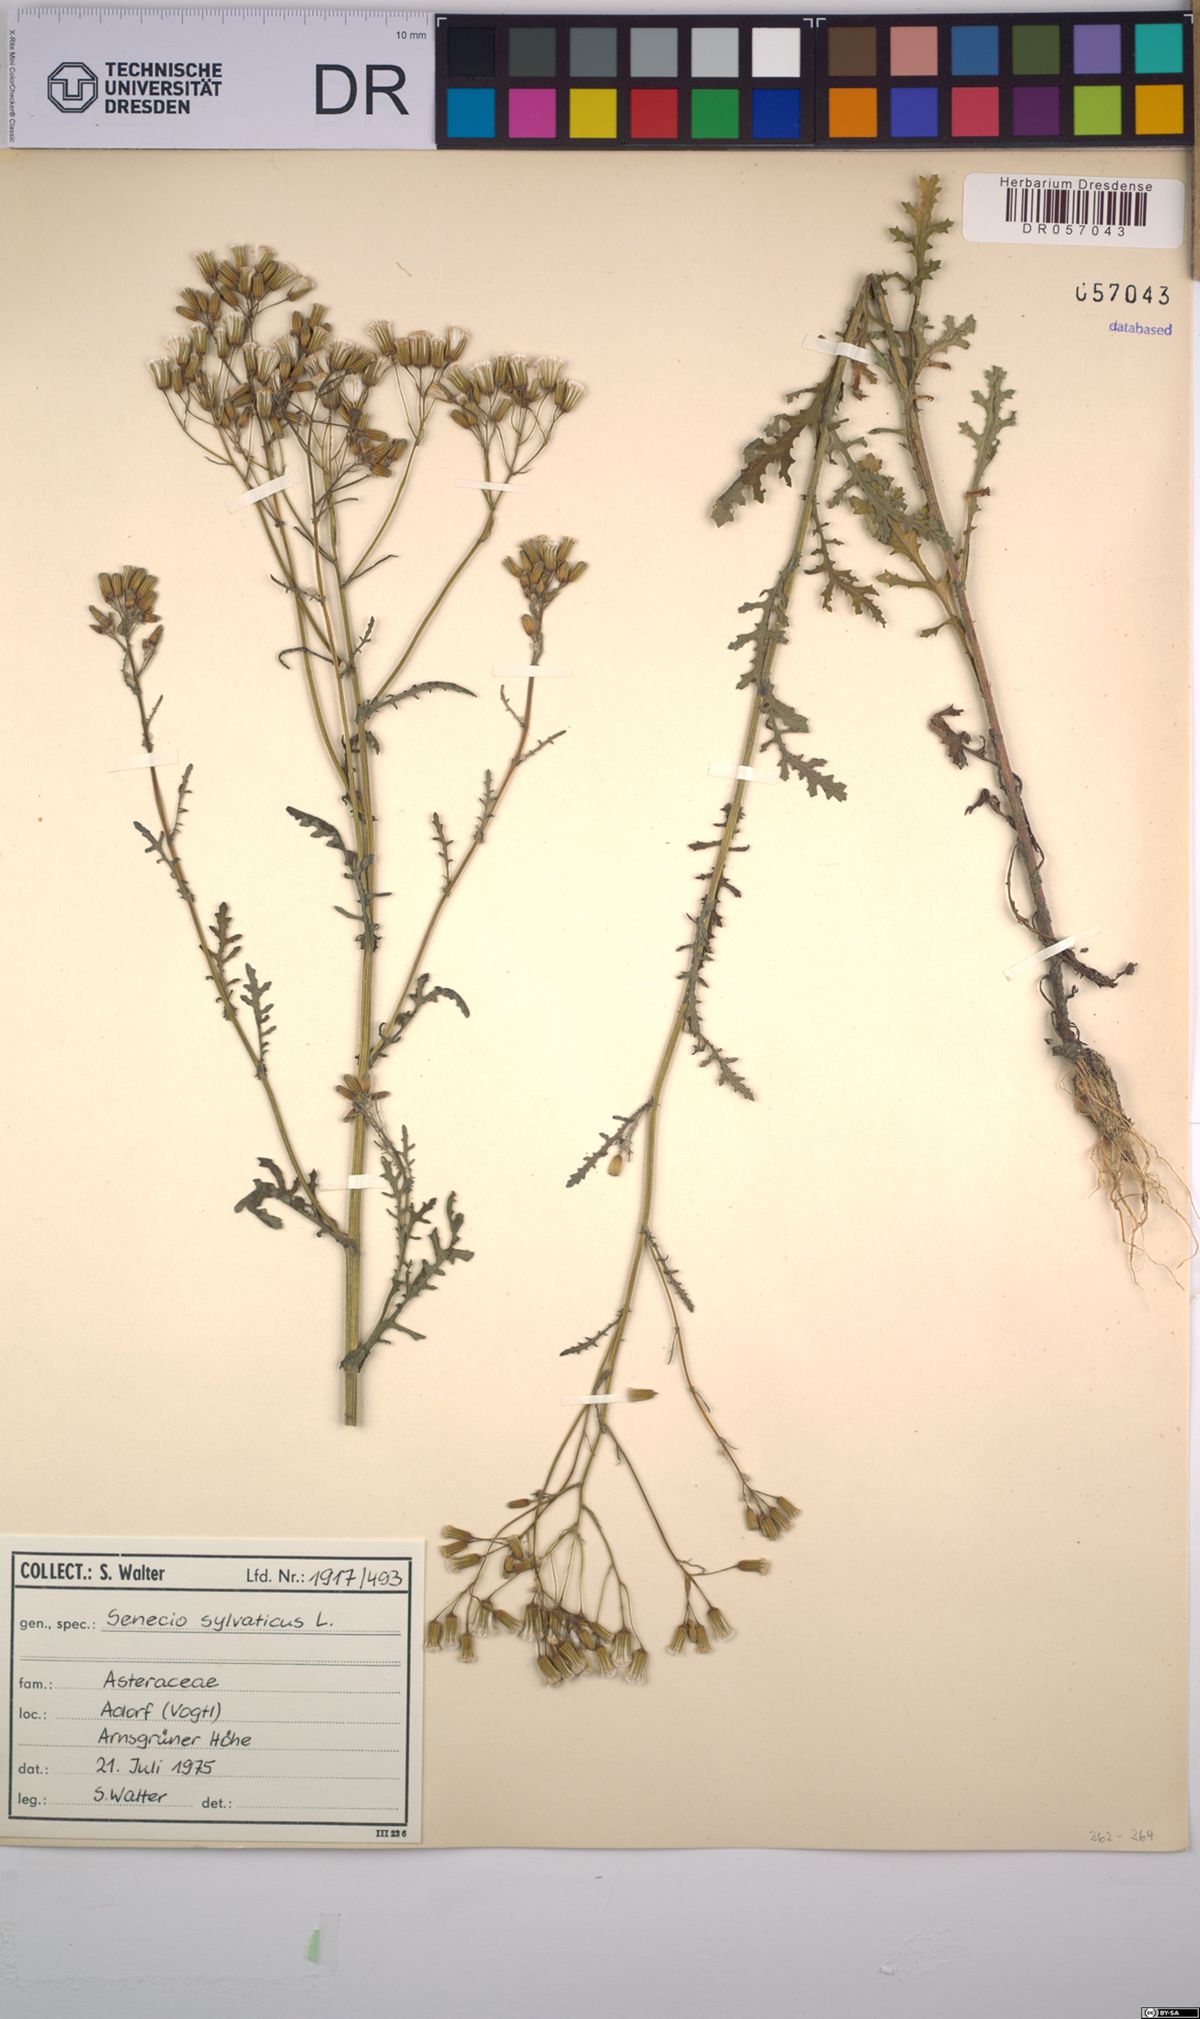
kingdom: Plantae
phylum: Tracheophyta
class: Magnoliopsida
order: Asterales
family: Asteraceae
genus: Senecio
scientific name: Senecio sylvaticus
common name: Woodland ragwort
